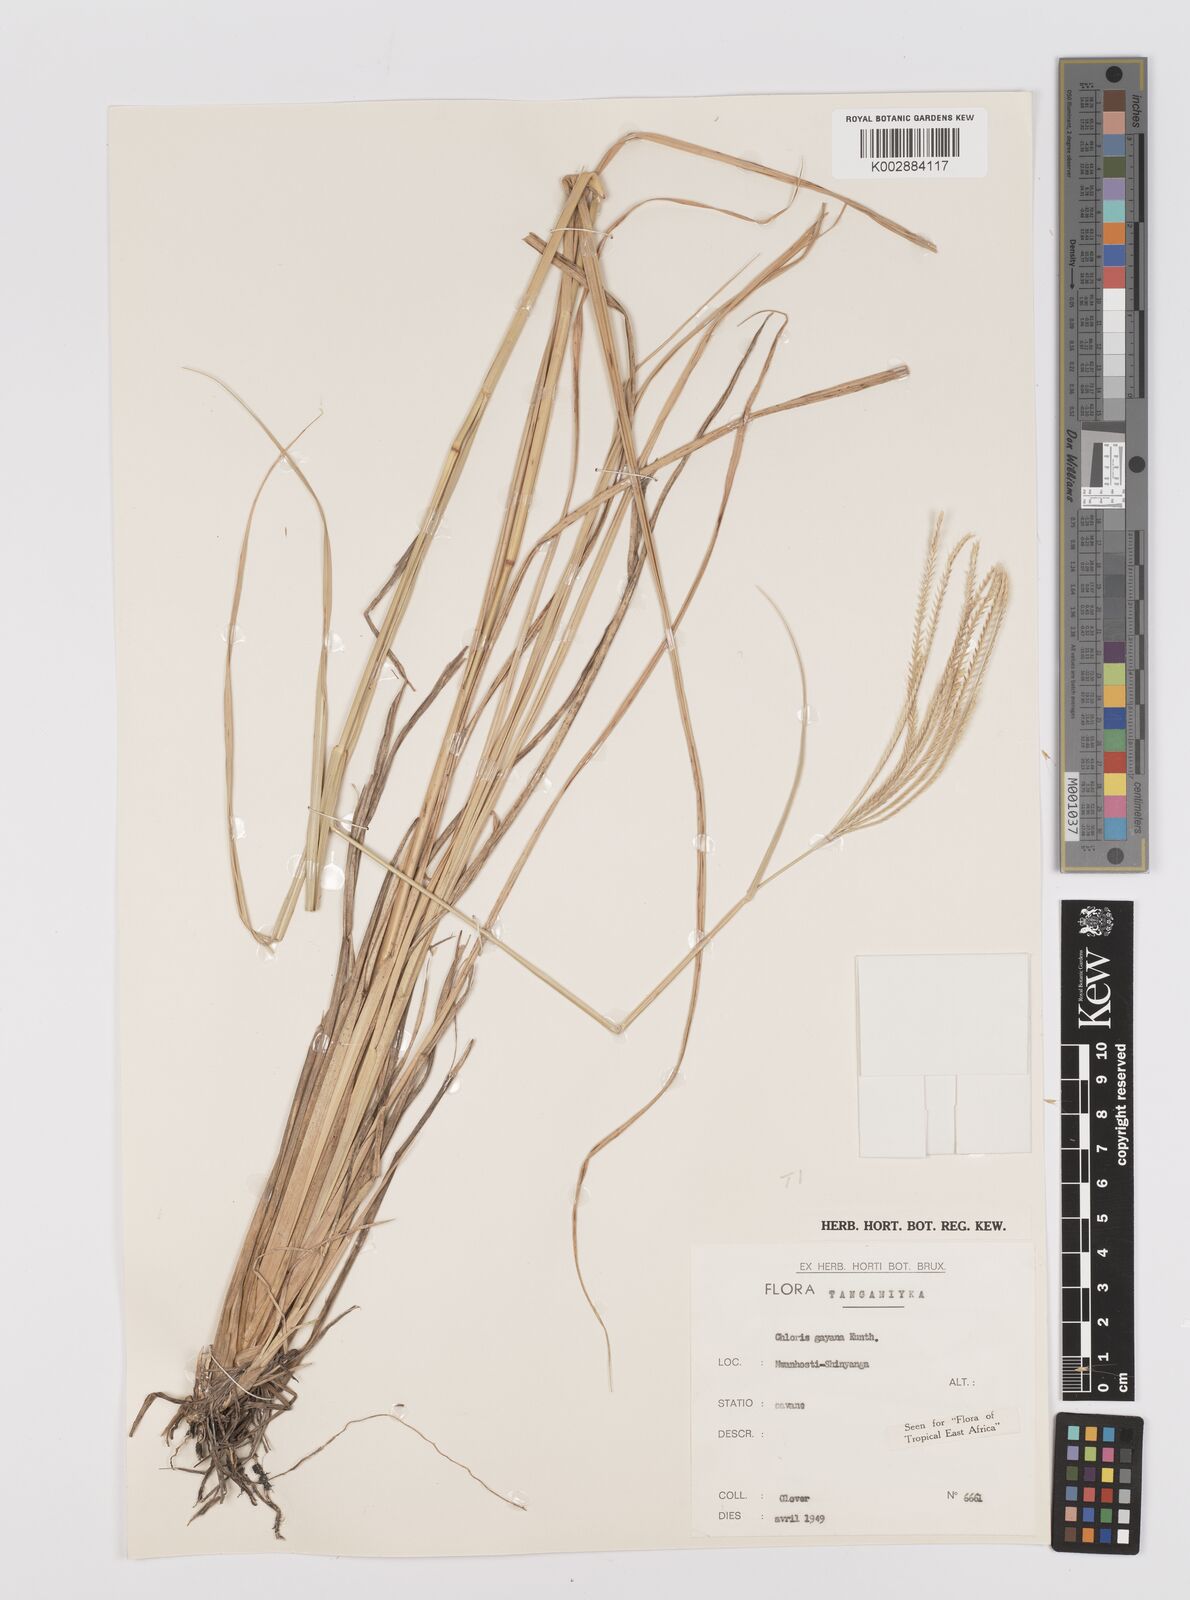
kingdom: Plantae
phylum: Tracheophyta
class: Liliopsida
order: Poales
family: Poaceae
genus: Chloris
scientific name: Chloris gayana
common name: Rhodes grass
